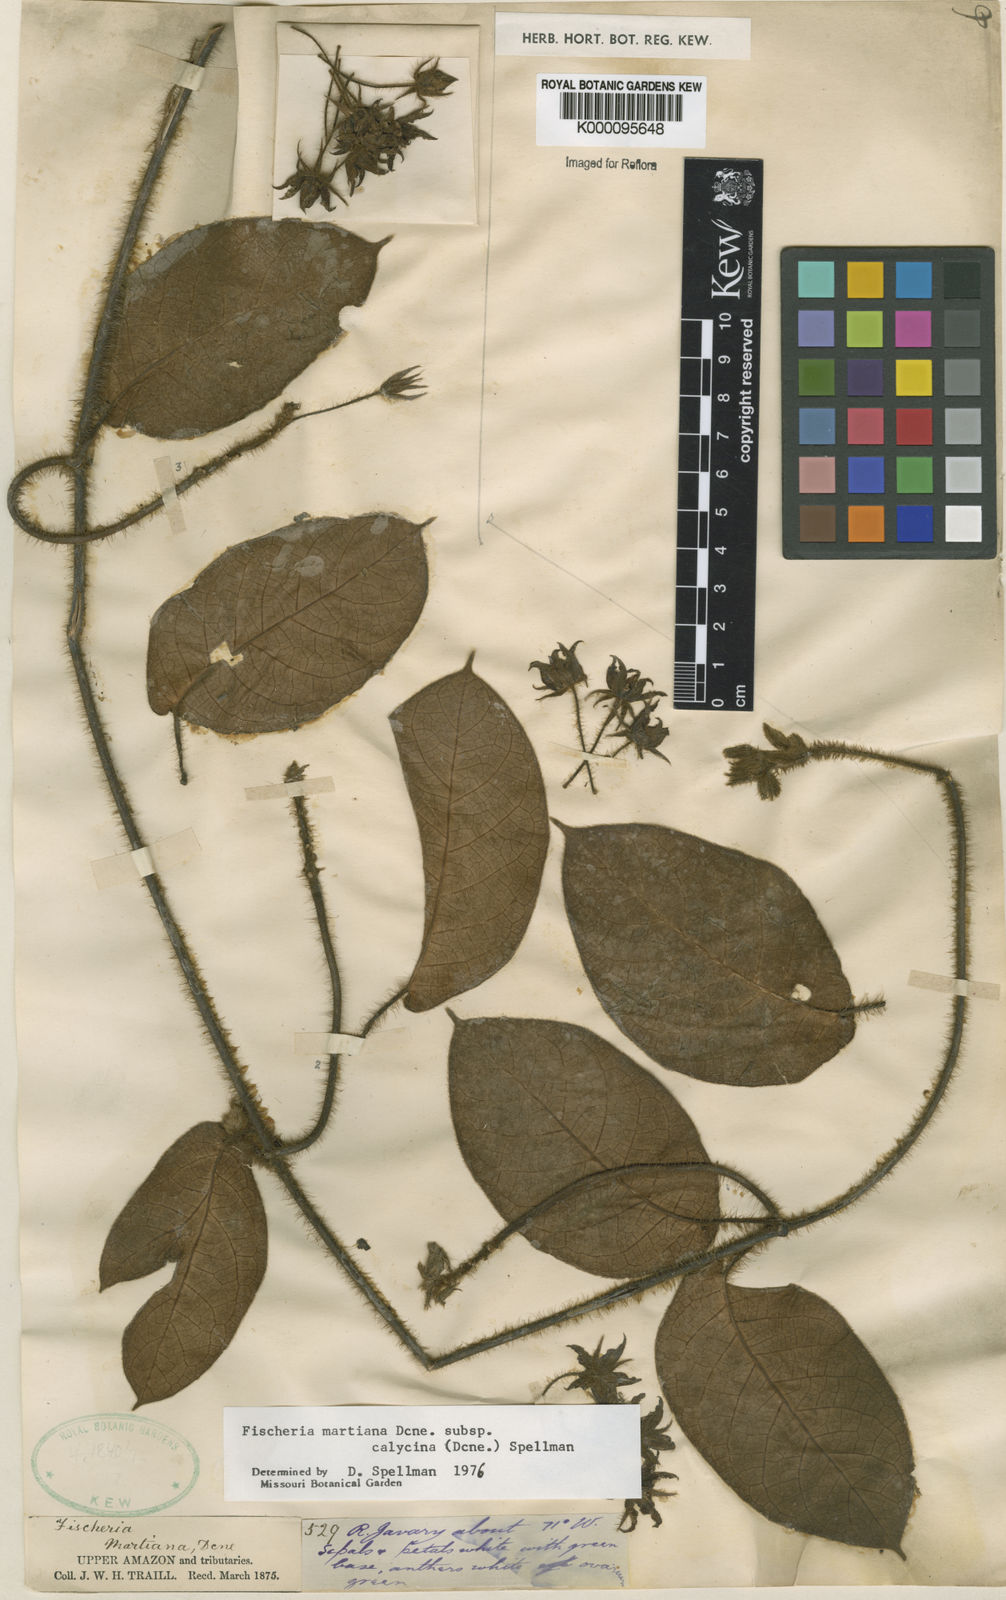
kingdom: Plantae
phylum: Tracheophyta
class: Magnoliopsida
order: Gentianales
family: Apocynaceae
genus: Fischeria
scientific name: Fischeria stellata
